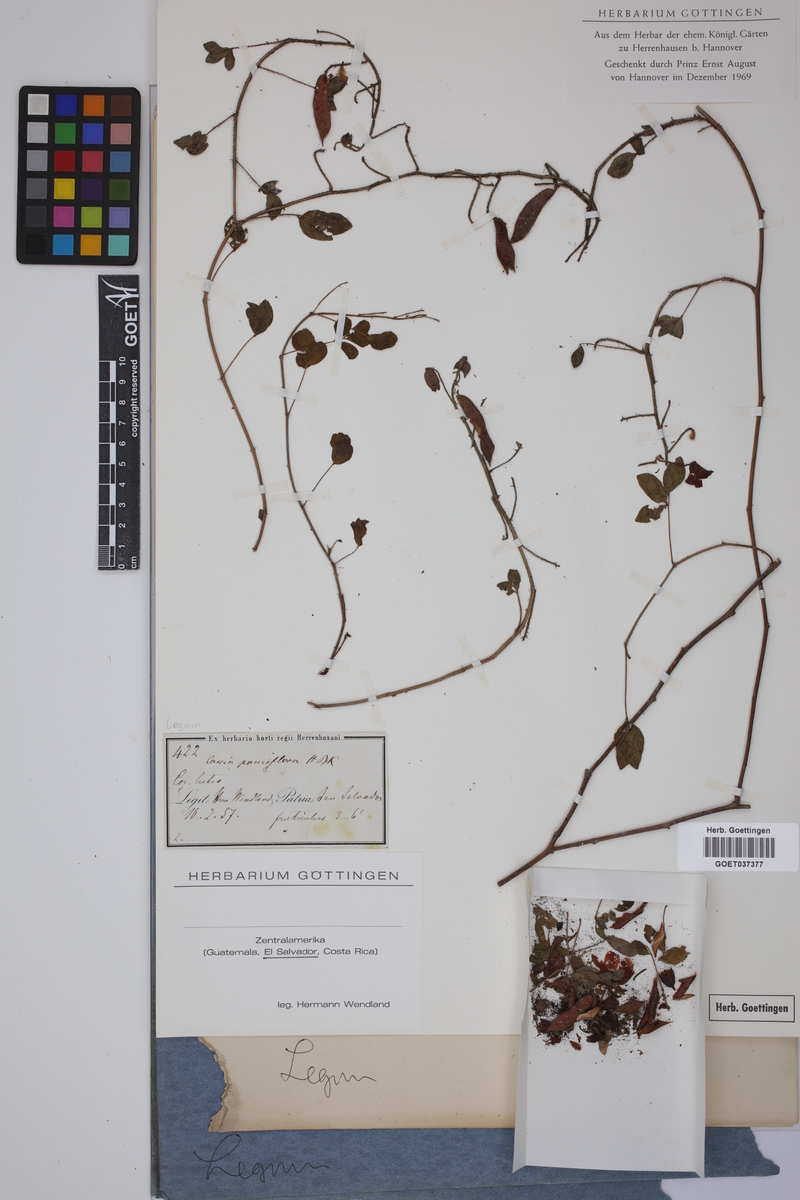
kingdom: Plantae
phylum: Tracheophyta
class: Magnoliopsida
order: Fabales
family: Fabaceae
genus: Chamaecrista
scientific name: Chamaecrista desvauxii
